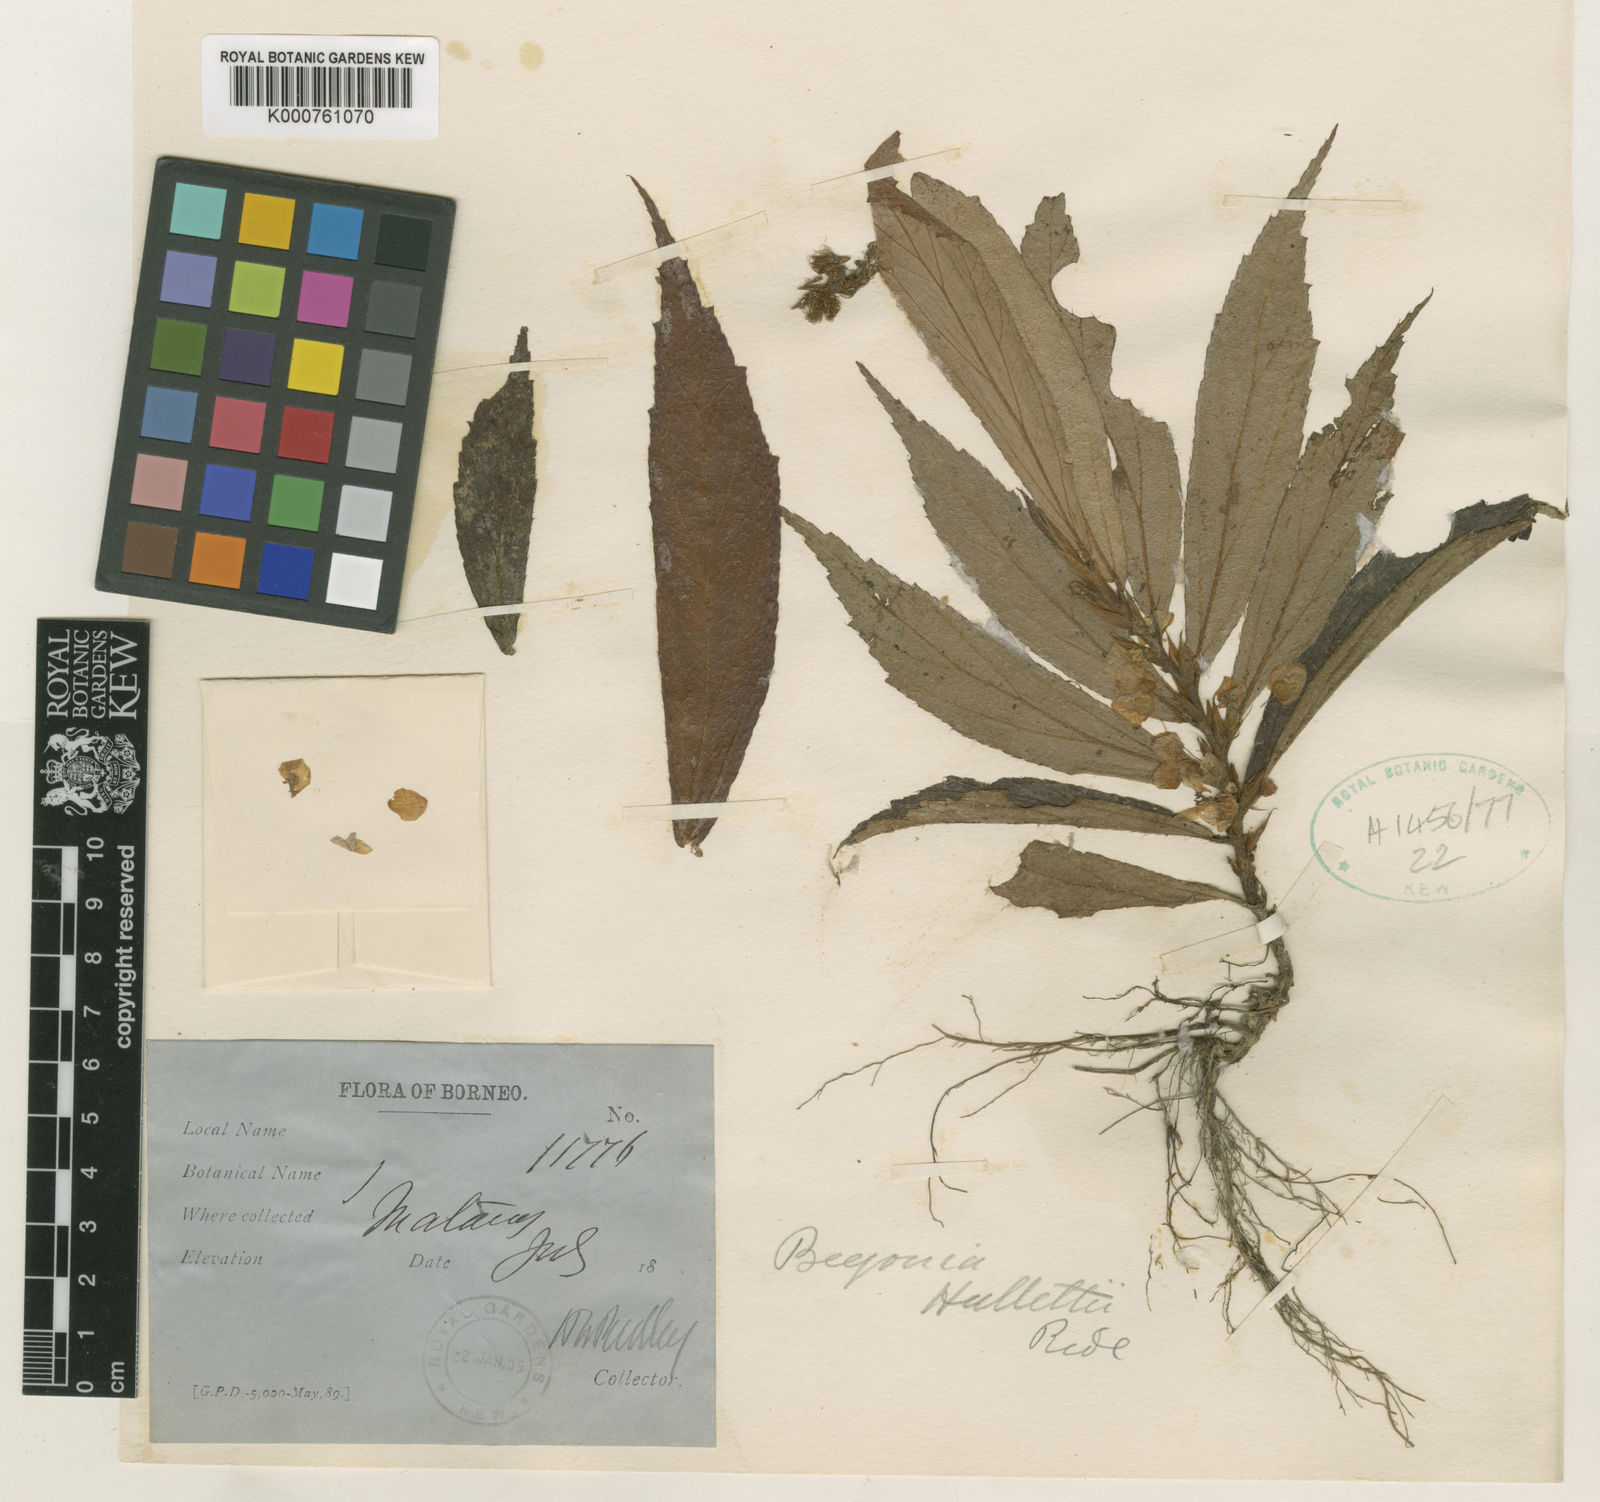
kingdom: Plantae
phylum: Tracheophyta
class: Magnoliopsida
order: Cucurbitales
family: Begoniaceae
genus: Begonia
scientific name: Begonia hullettii
